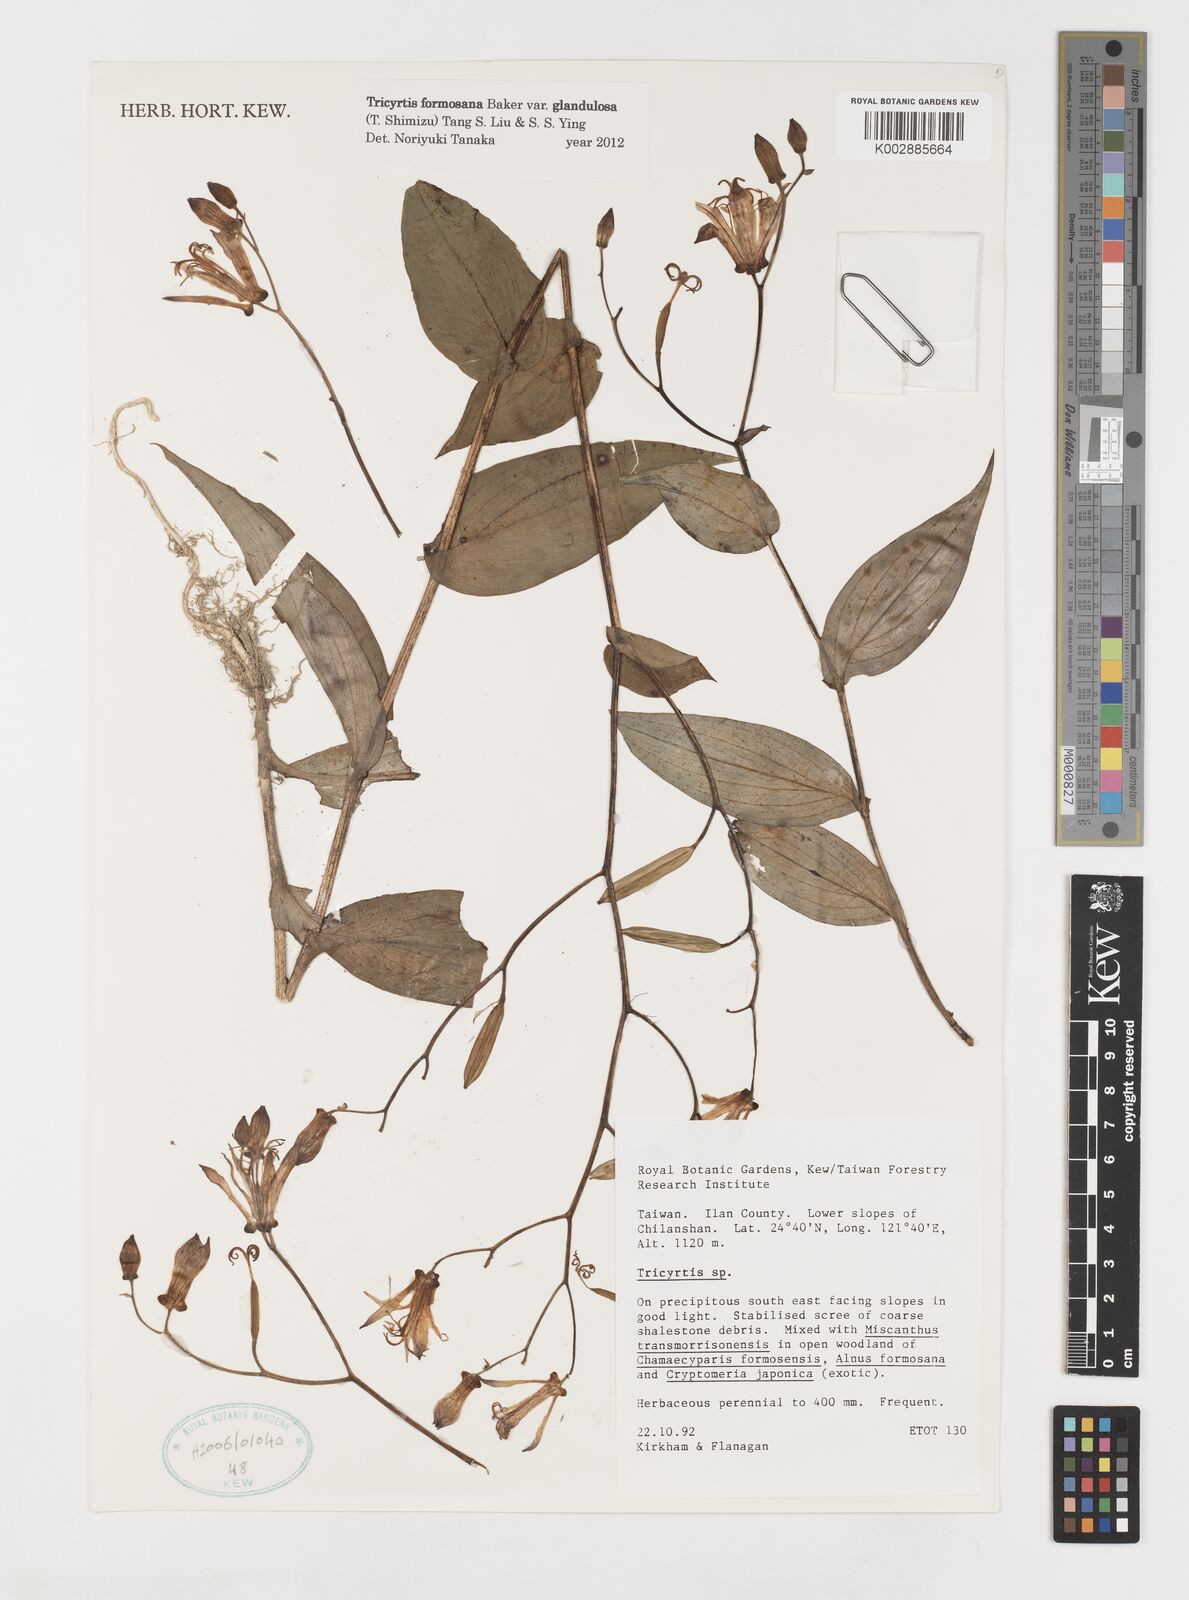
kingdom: Plantae
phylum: Tracheophyta
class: Liliopsida
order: Liliales
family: Liliaceae
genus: Tricyrtis
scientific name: Tricyrtis formosana
